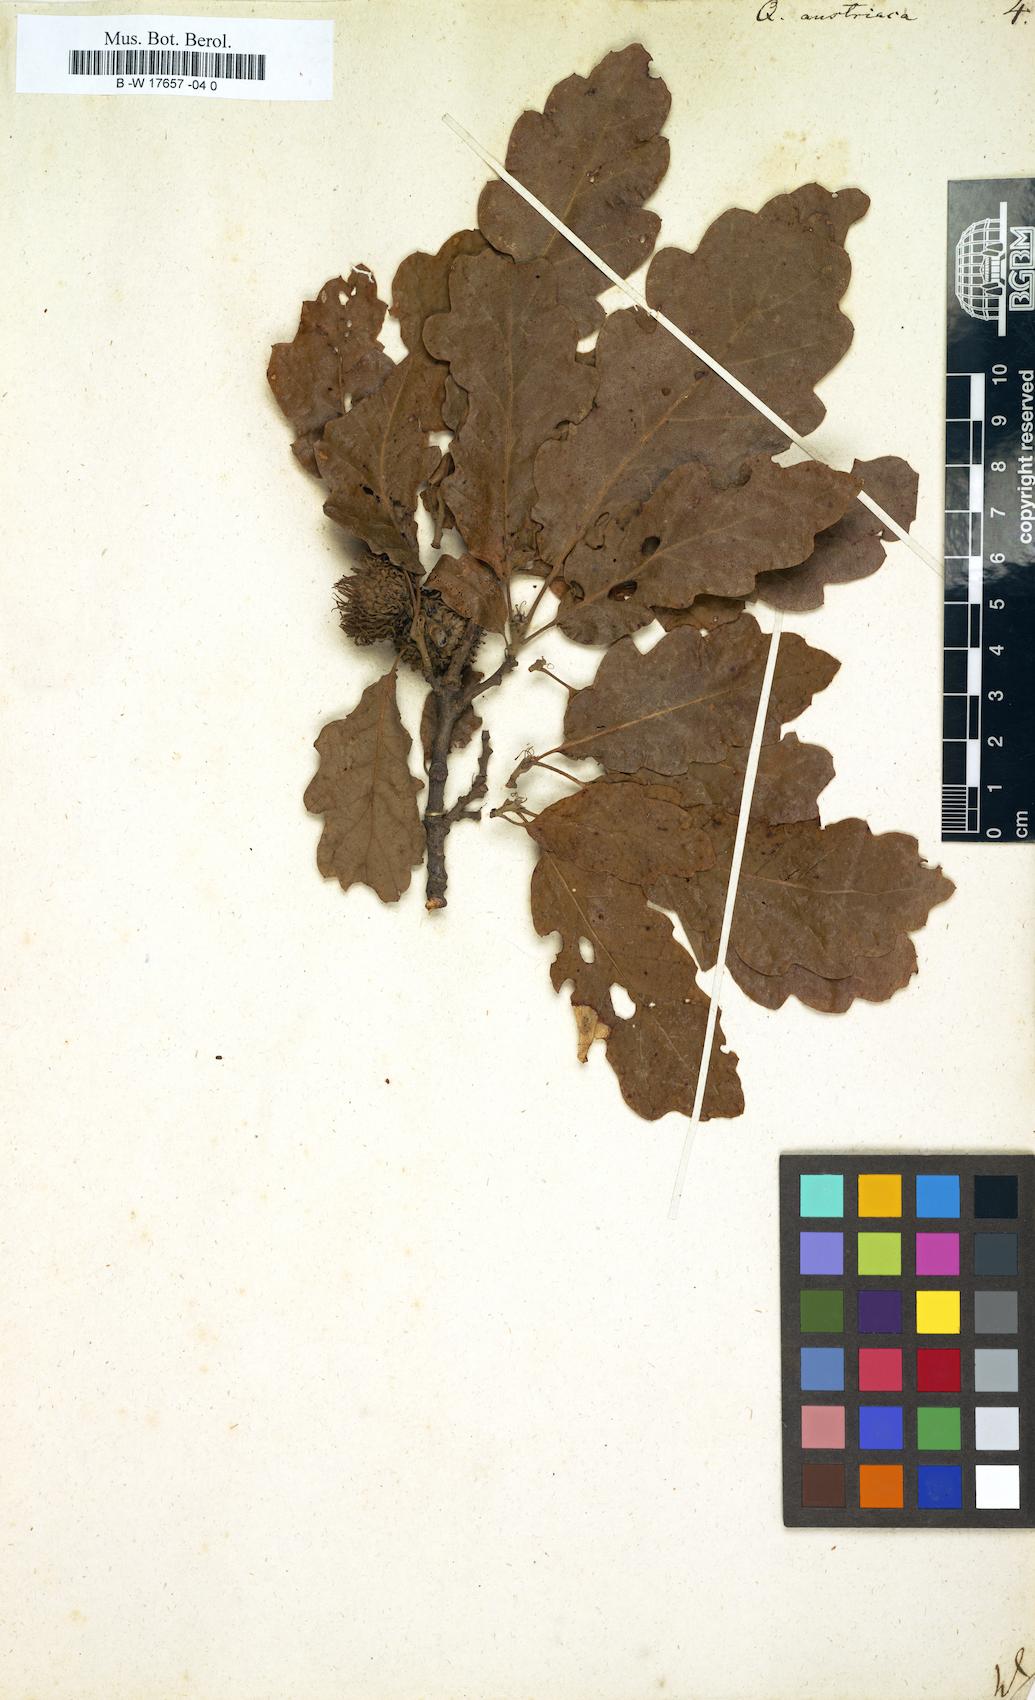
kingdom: Plantae
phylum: Tracheophyta
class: Magnoliopsida
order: Fagales
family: Fagaceae
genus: Quercus
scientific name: Quercus cerris
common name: Turkey oak
